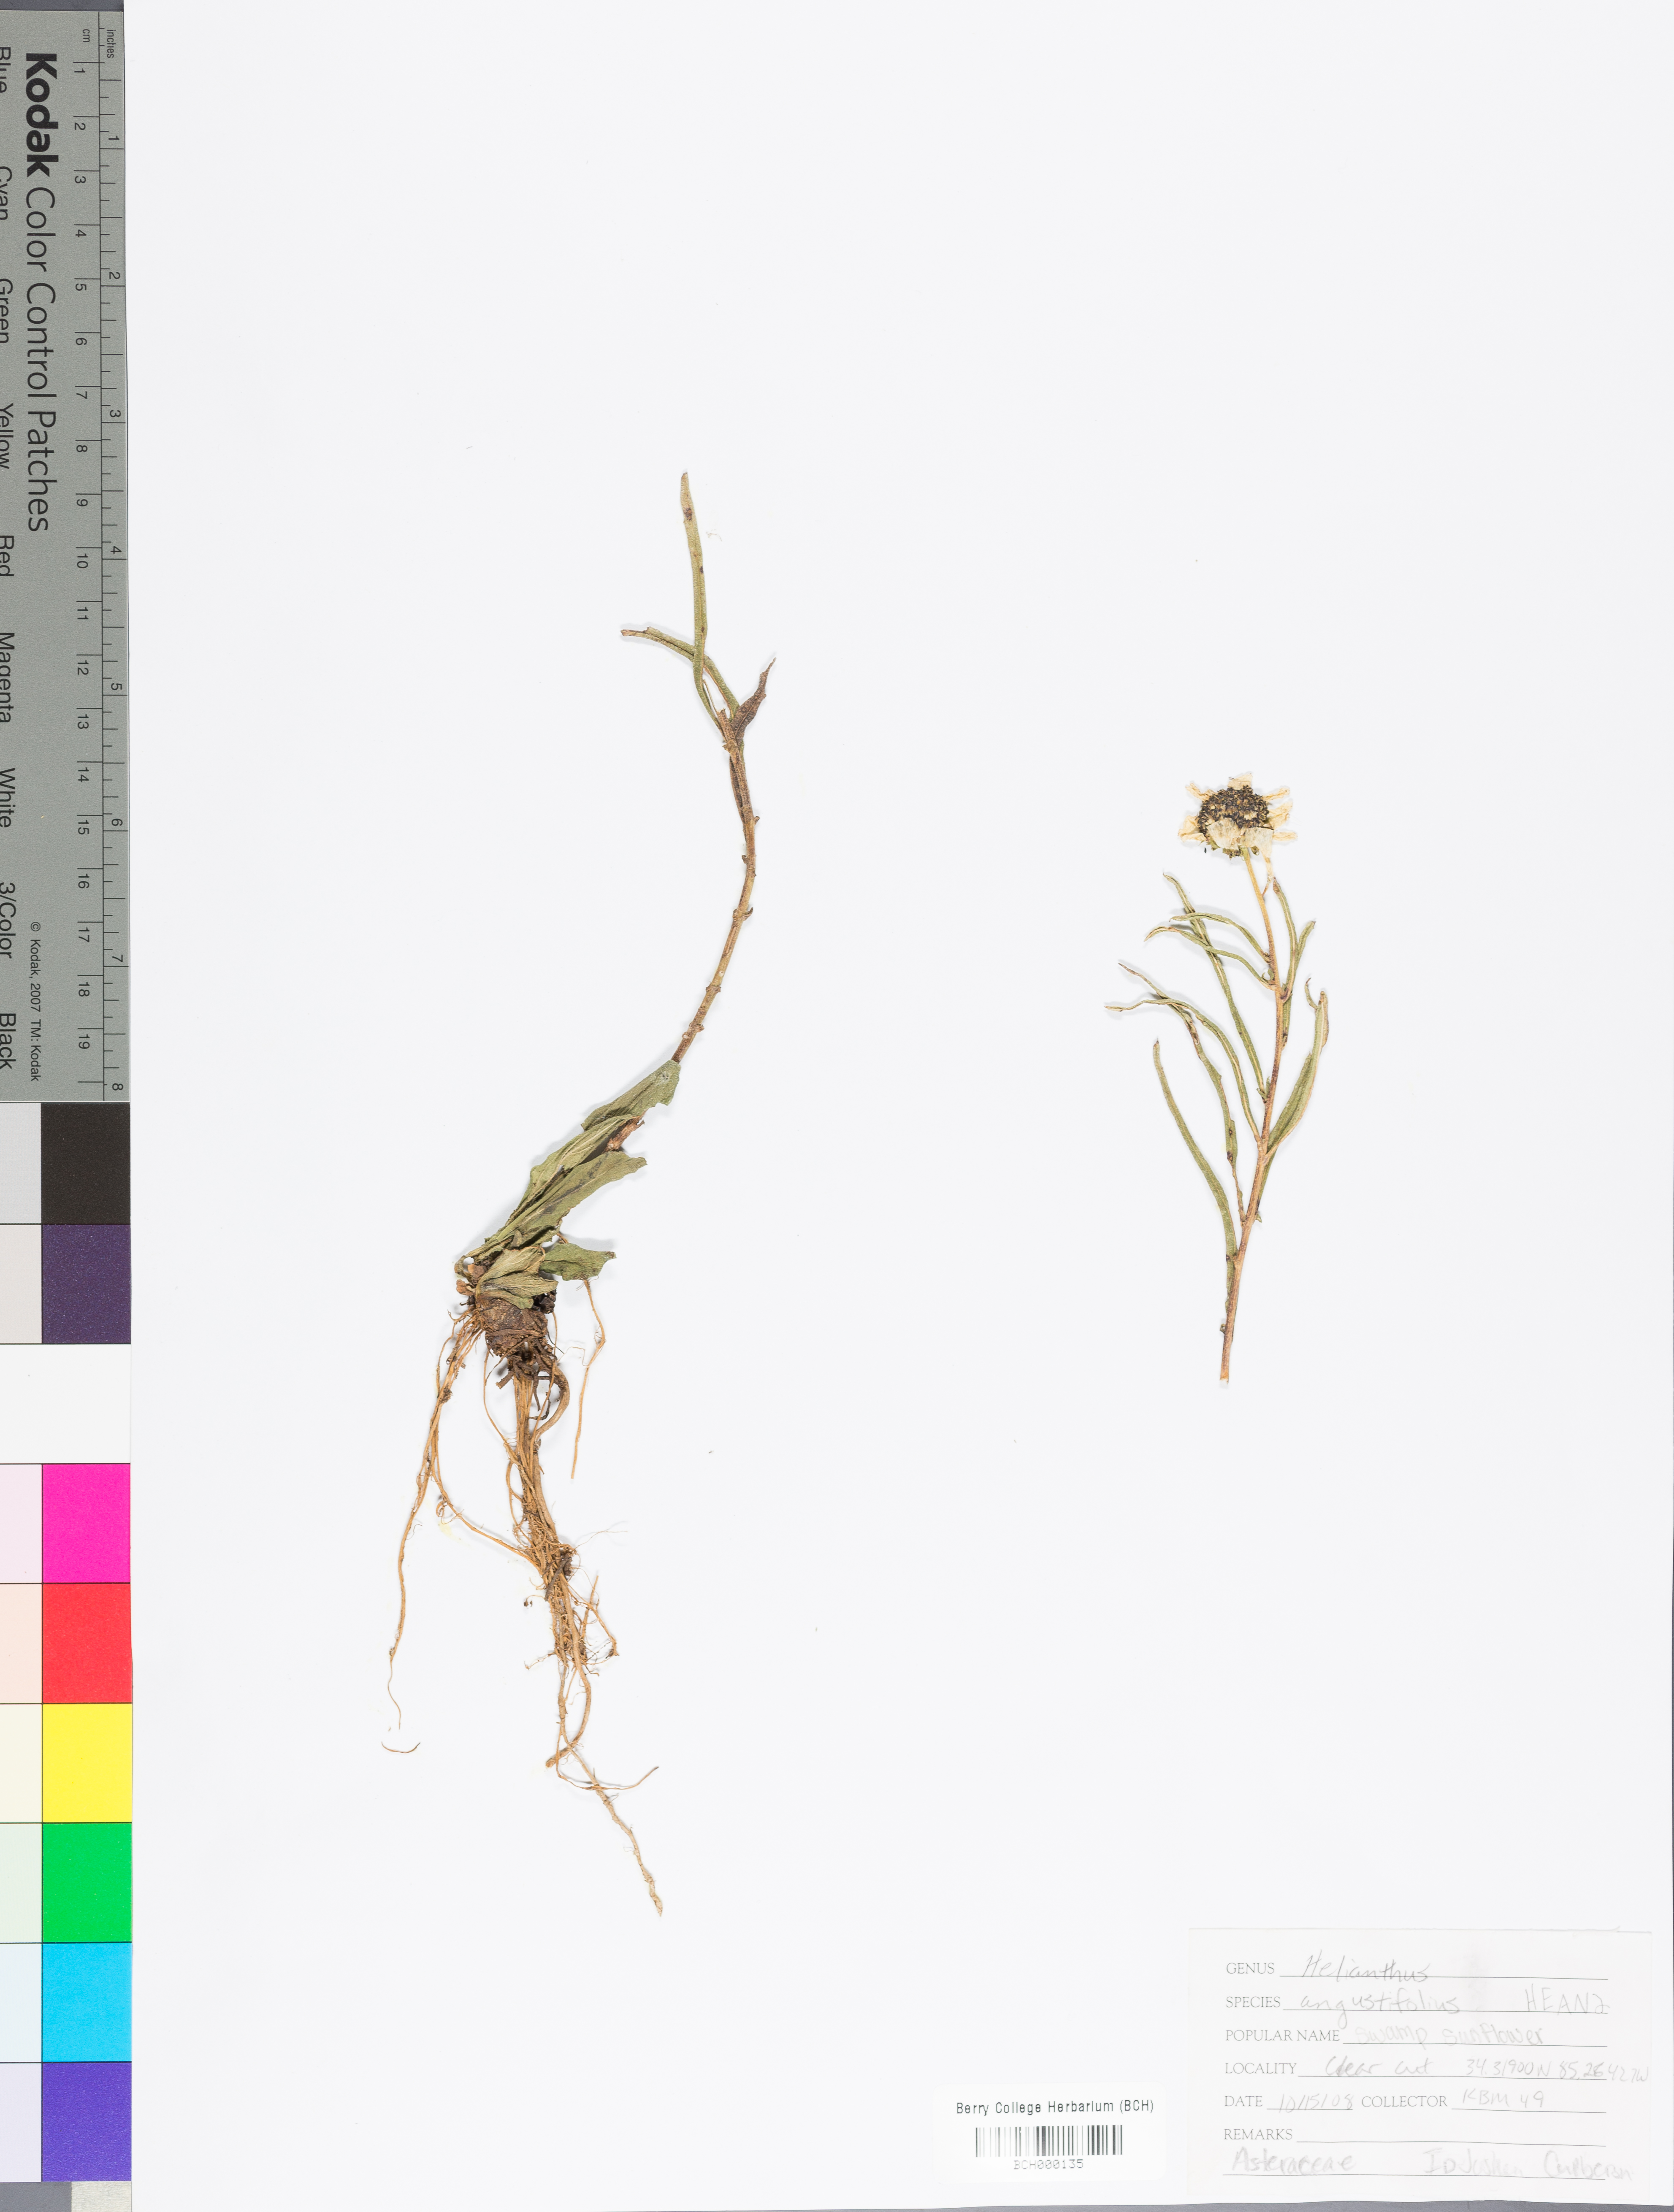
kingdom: Plantae
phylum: Tracheophyta
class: Magnoliopsida
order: Asterales
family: Asteraceae
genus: Helianthus
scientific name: Helianthus angustifolius
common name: Swamp sunflower
